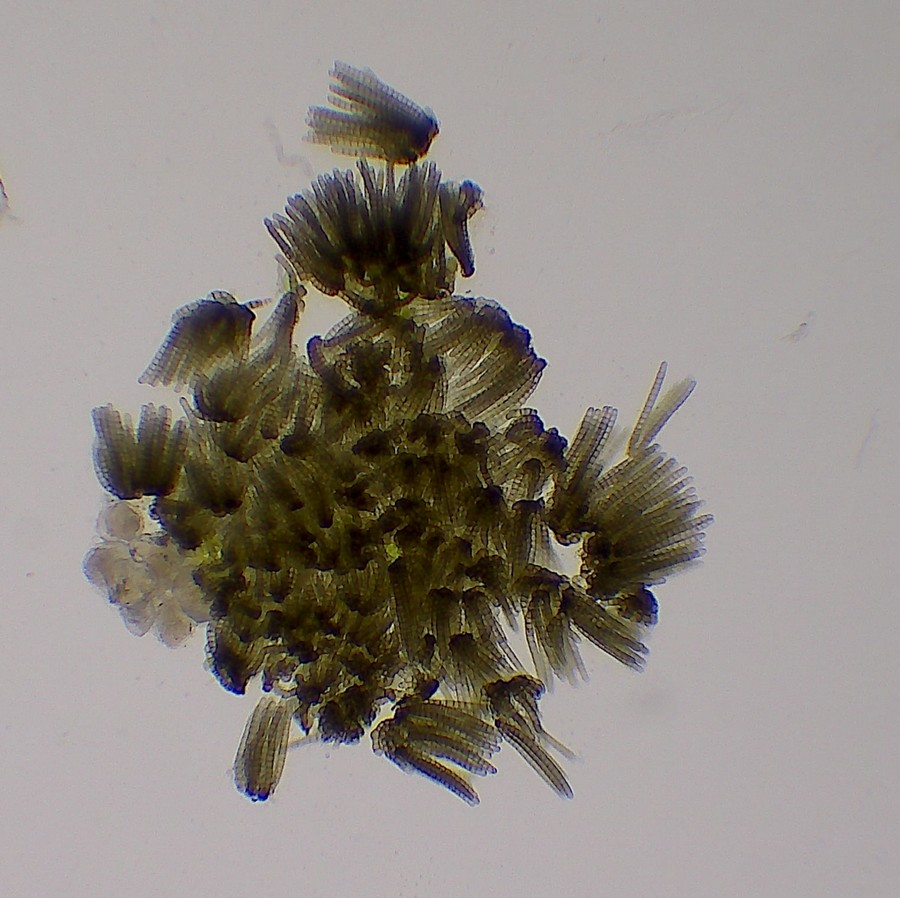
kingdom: Fungi
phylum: Ascomycota
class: Dothideomycetes
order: Pleosporales
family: Cryptocoryneaceae
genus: Cryptocoryneum
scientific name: Cryptocoryneum condensatum
